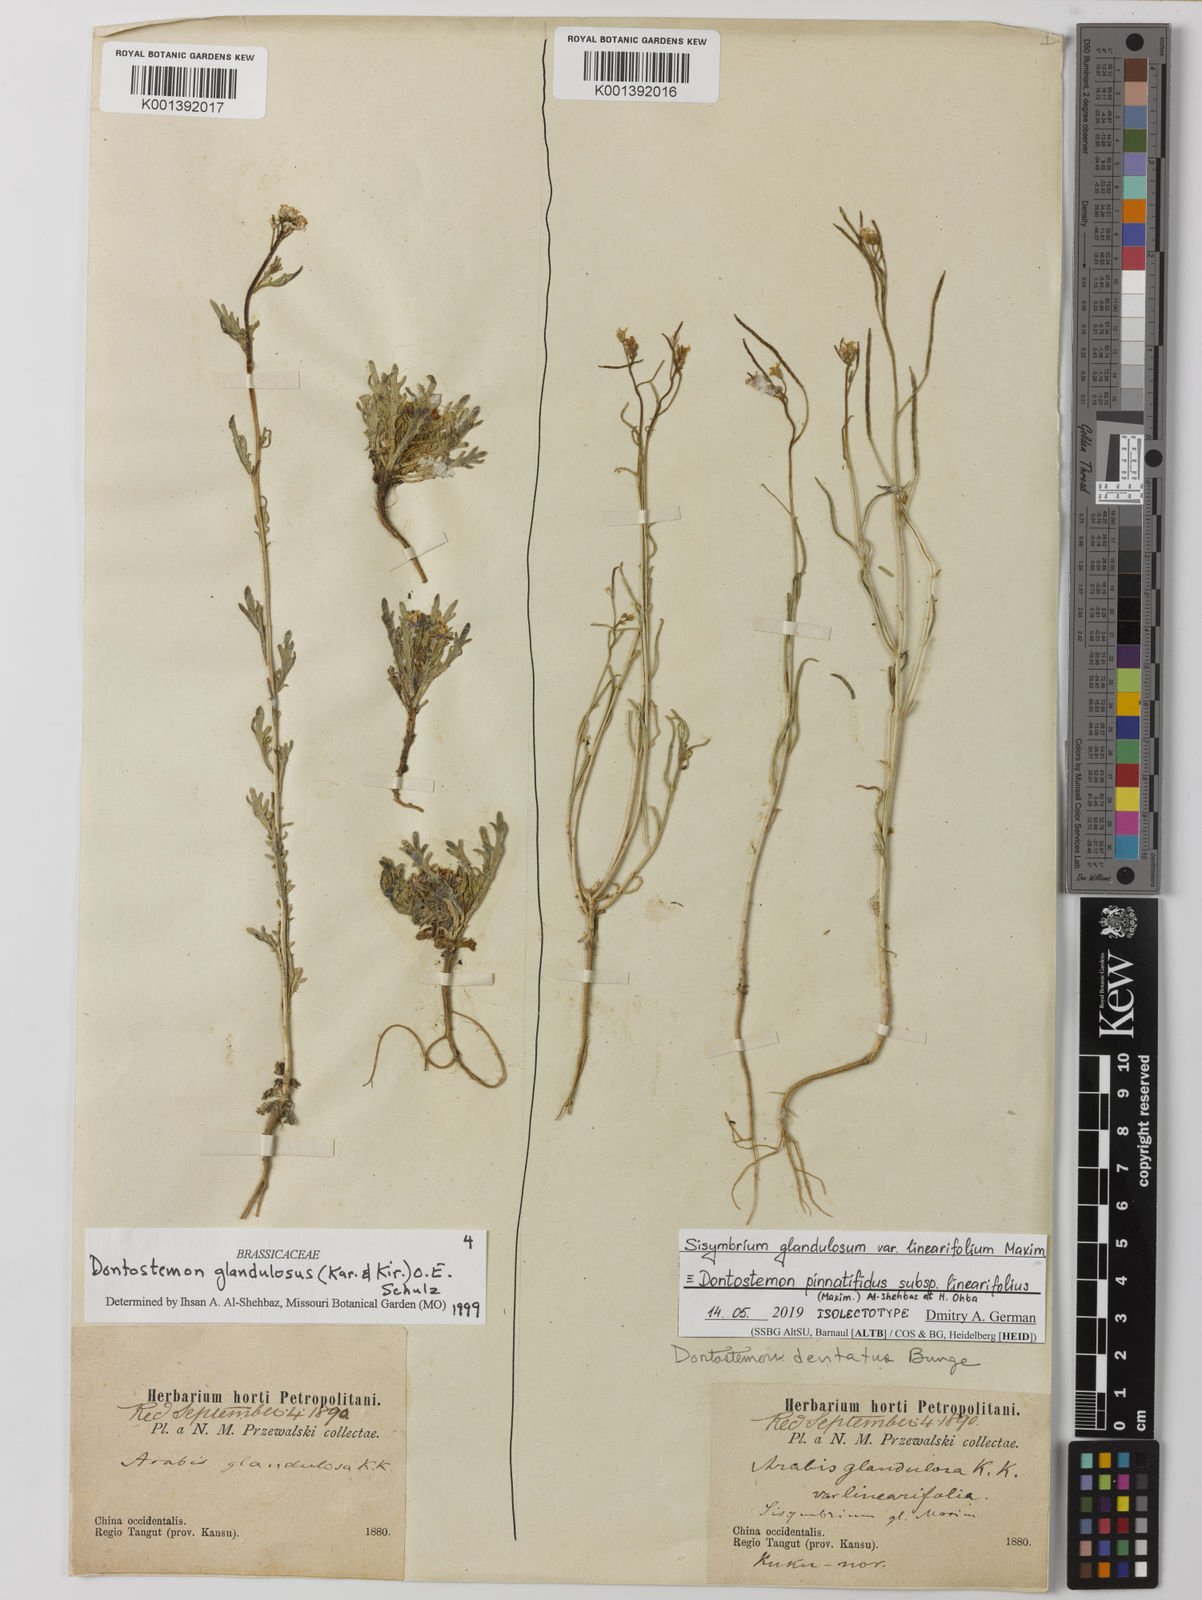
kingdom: Plantae
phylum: Tracheophyta
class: Magnoliopsida
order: Brassicales
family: Brassicaceae
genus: Dontostemon
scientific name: Dontostemon glandulosus
